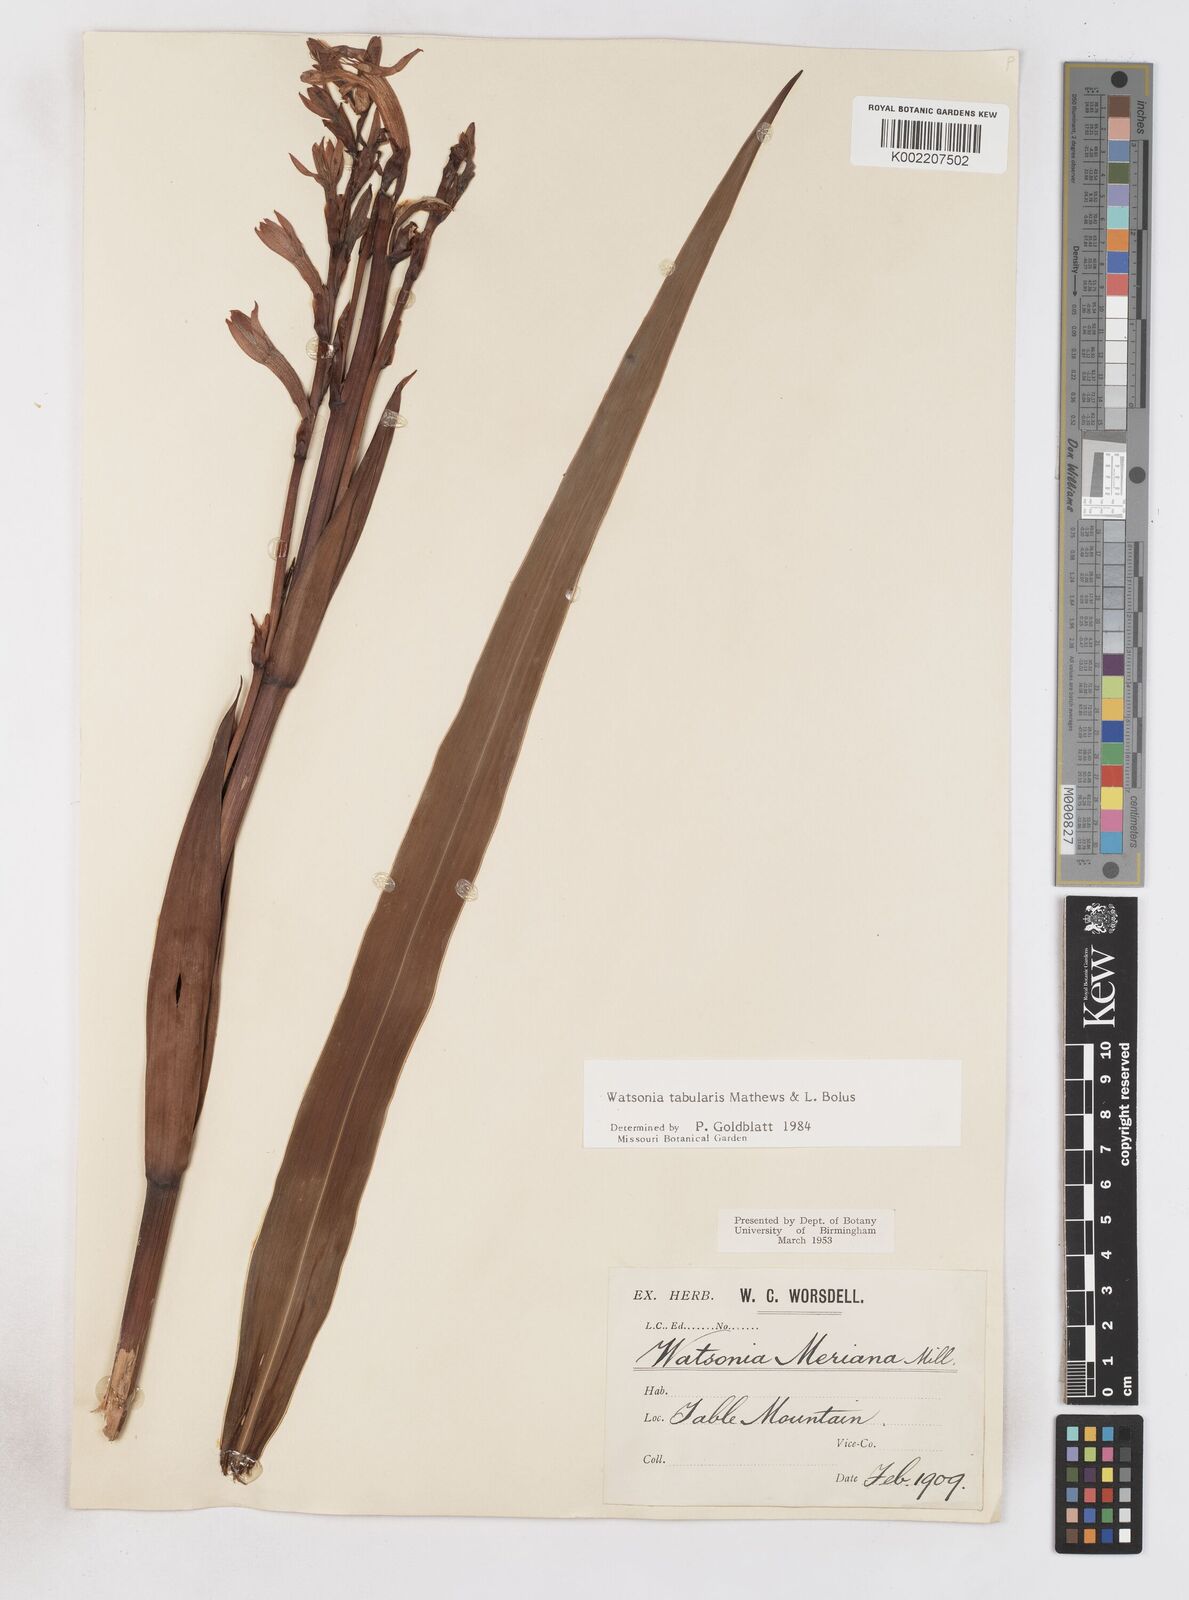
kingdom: Plantae
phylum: Tracheophyta
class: Liliopsida
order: Asparagales
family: Iridaceae
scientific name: Iridaceae
